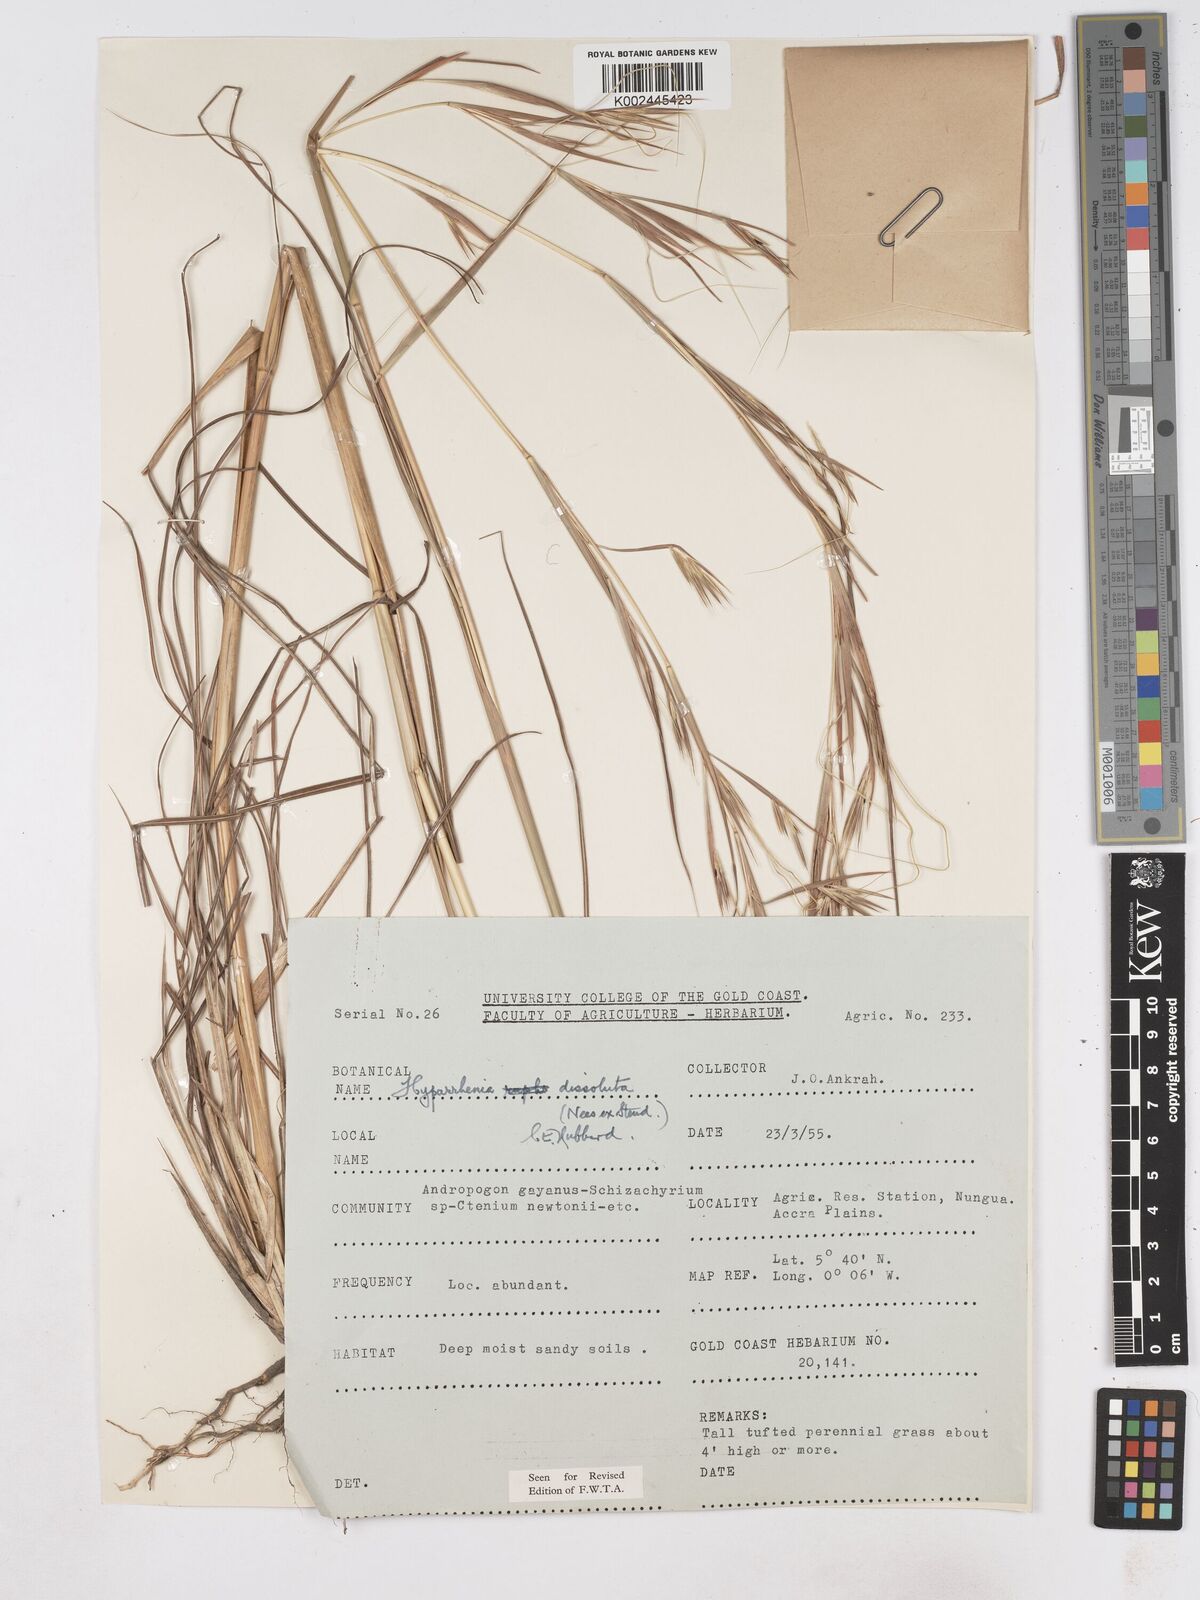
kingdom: Plantae
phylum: Tracheophyta
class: Liliopsida
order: Poales
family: Poaceae
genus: Hyperthelia
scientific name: Hyperthelia dissoluta
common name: Yellow thatching grass
